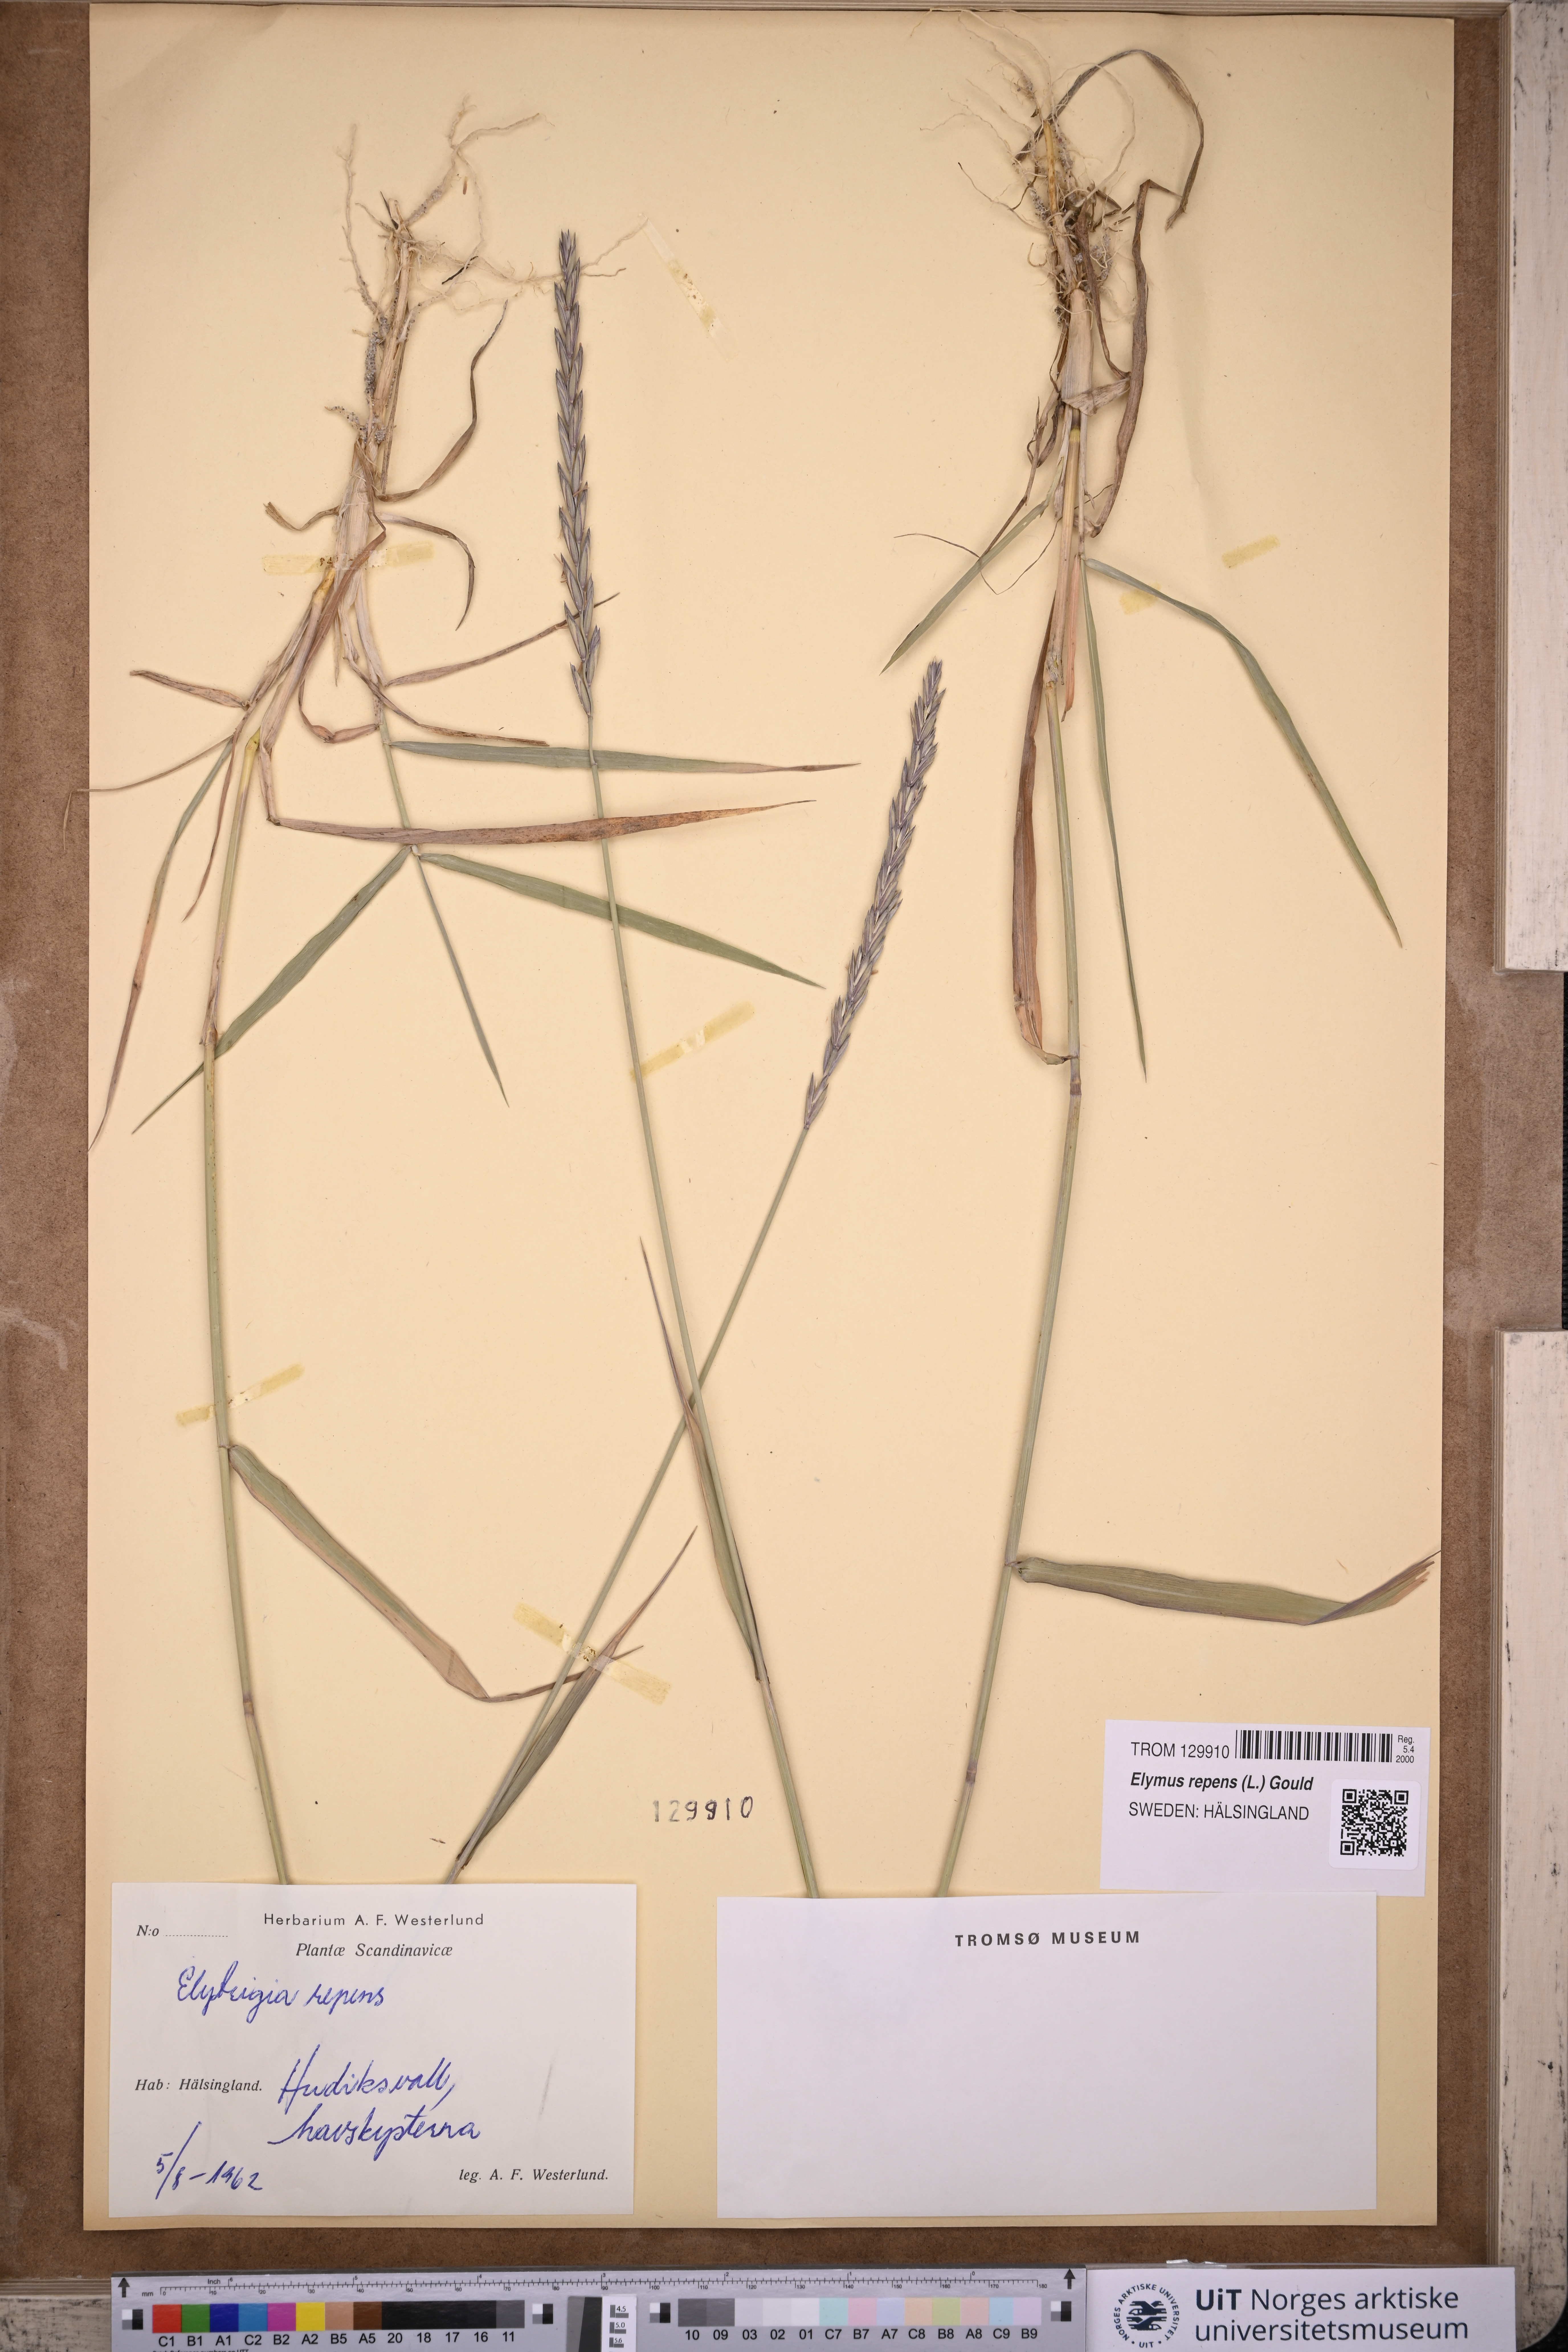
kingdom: Plantae
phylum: Tracheophyta
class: Liliopsida
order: Poales
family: Poaceae
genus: Elymus
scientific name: Elymus repens
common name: Quackgrass
